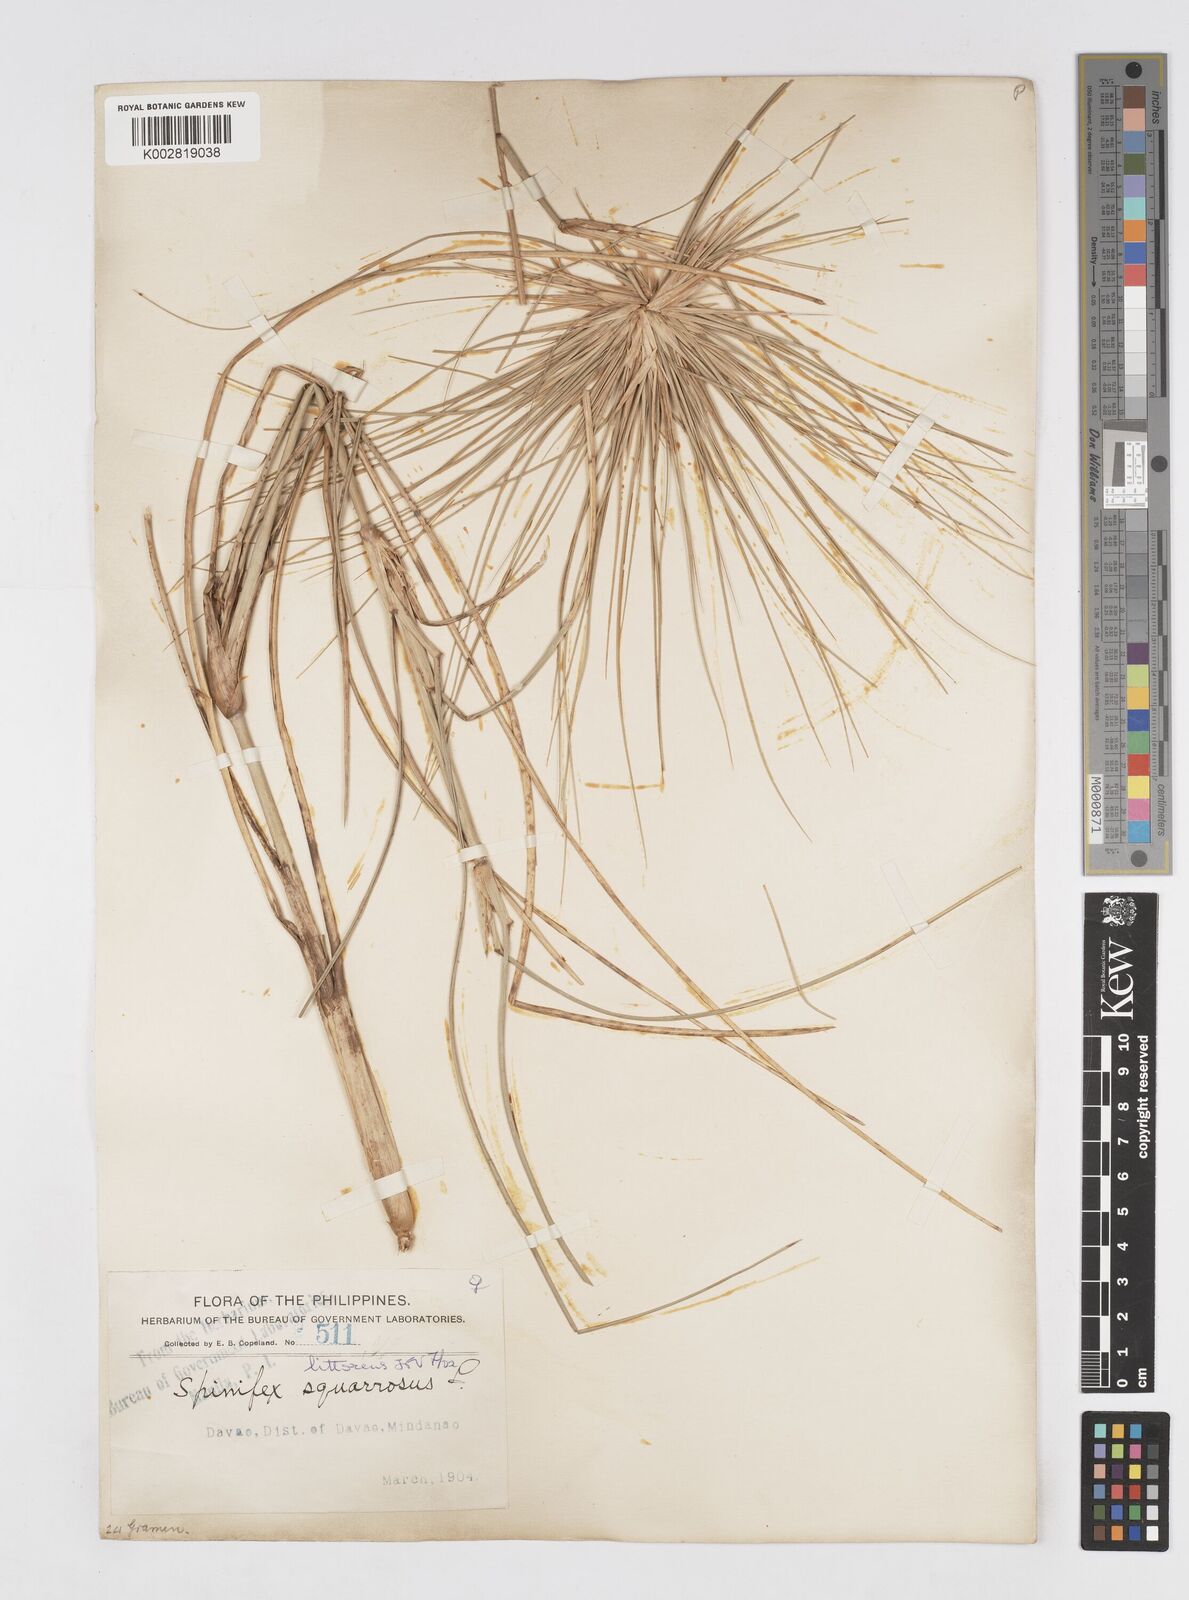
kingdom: Plantae
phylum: Tracheophyta
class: Liliopsida
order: Poales
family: Poaceae
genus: Spinifex
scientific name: Spinifex littoreus
